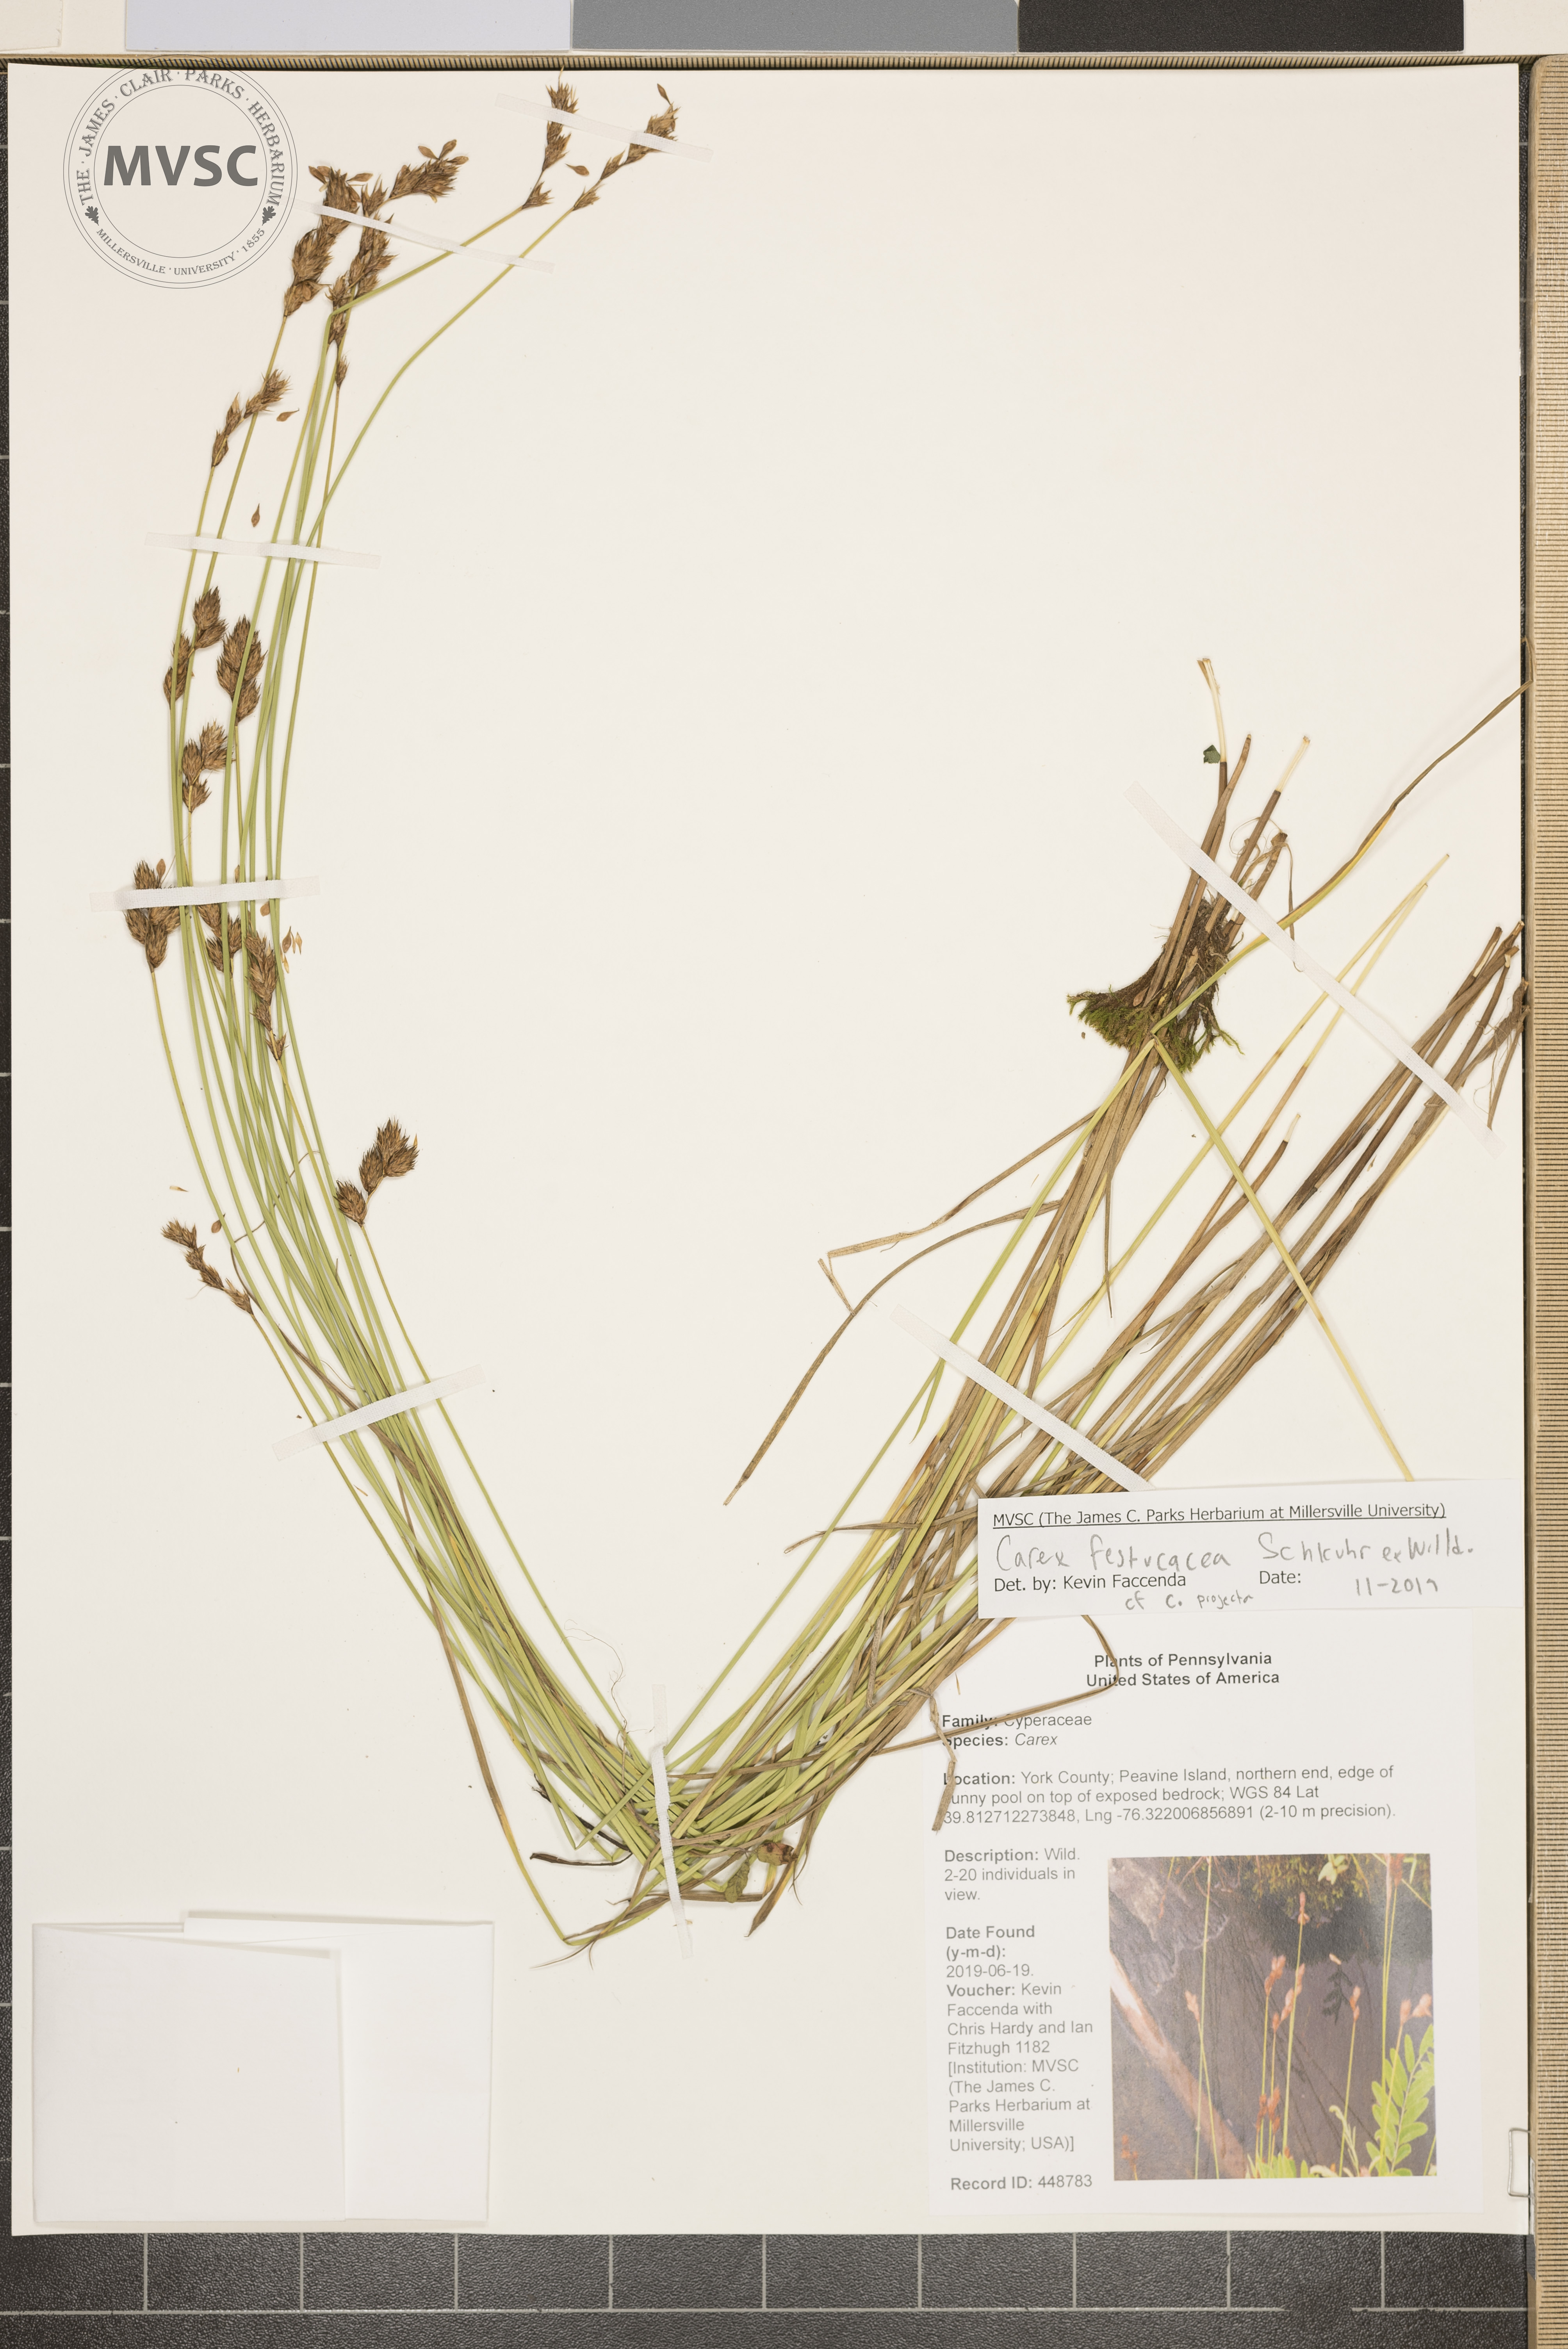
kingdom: Plantae
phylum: Tracheophyta
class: Liliopsida
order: Poales
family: Cyperaceae
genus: Carex
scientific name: Carex festucacea
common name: Fescue oval sedge
